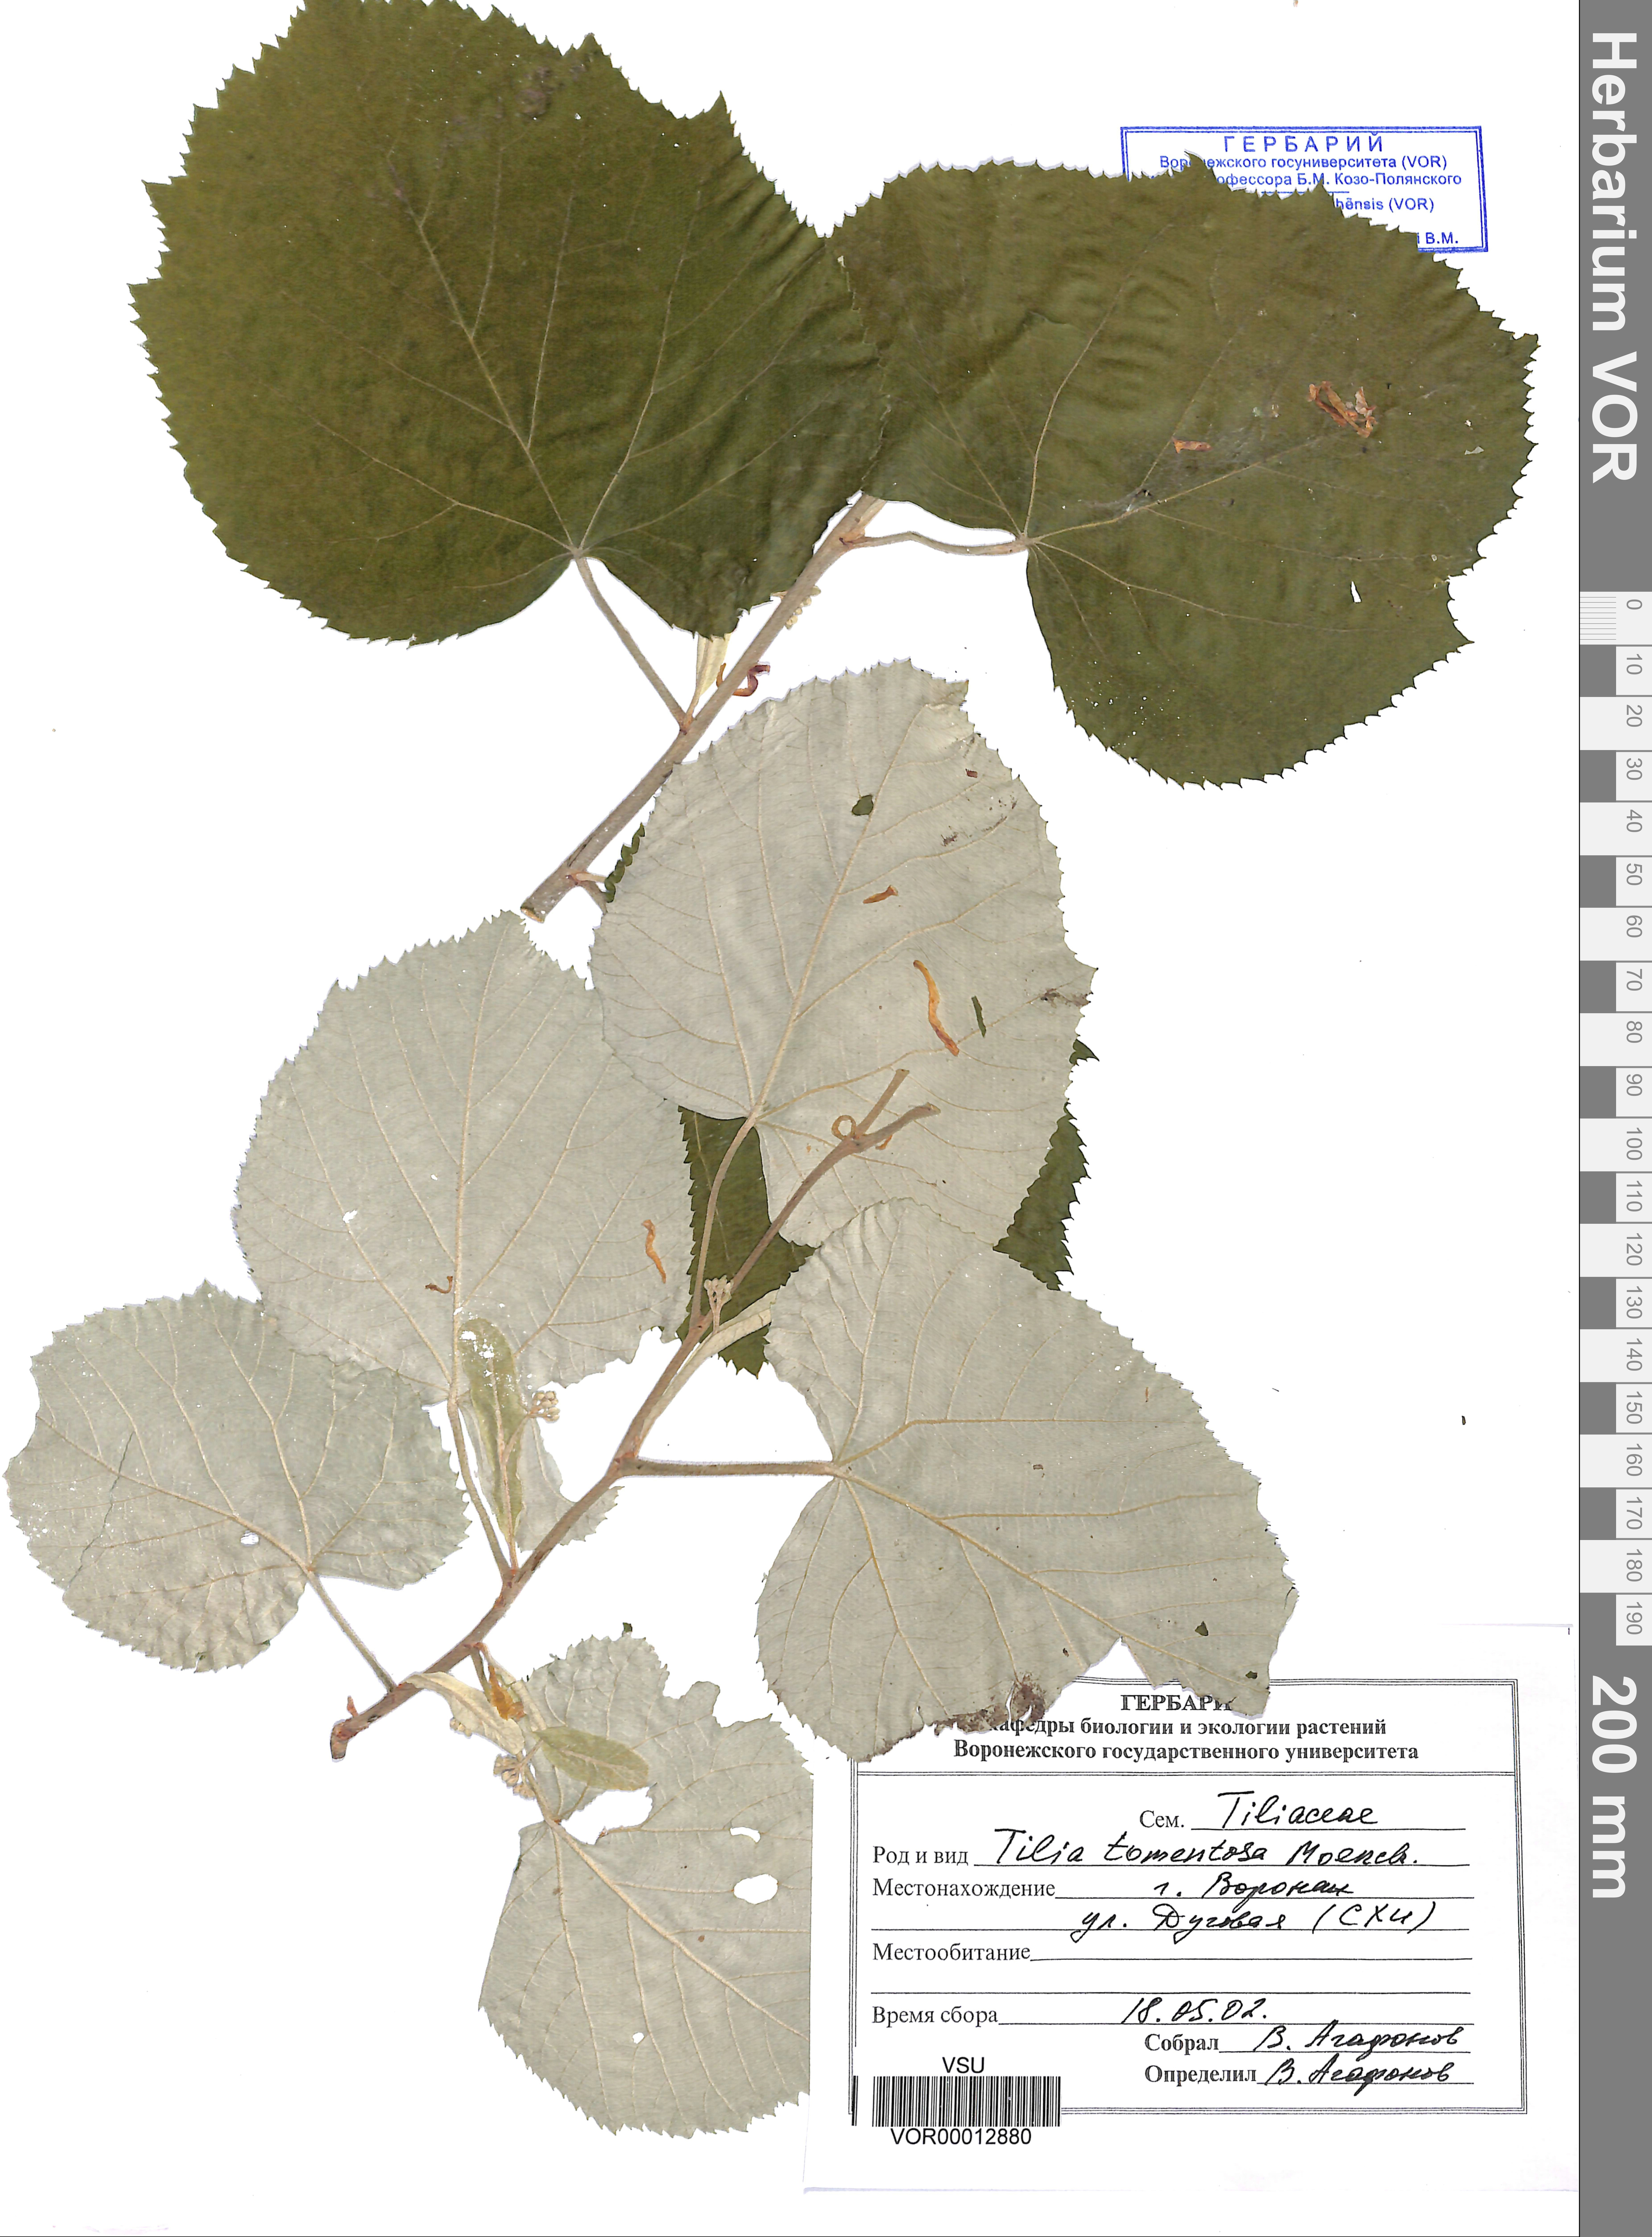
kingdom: Plantae
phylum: Tracheophyta
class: Magnoliopsida
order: Malvales
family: Malvaceae
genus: Tilia
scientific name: Tilia tomentosa
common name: Silver lime
